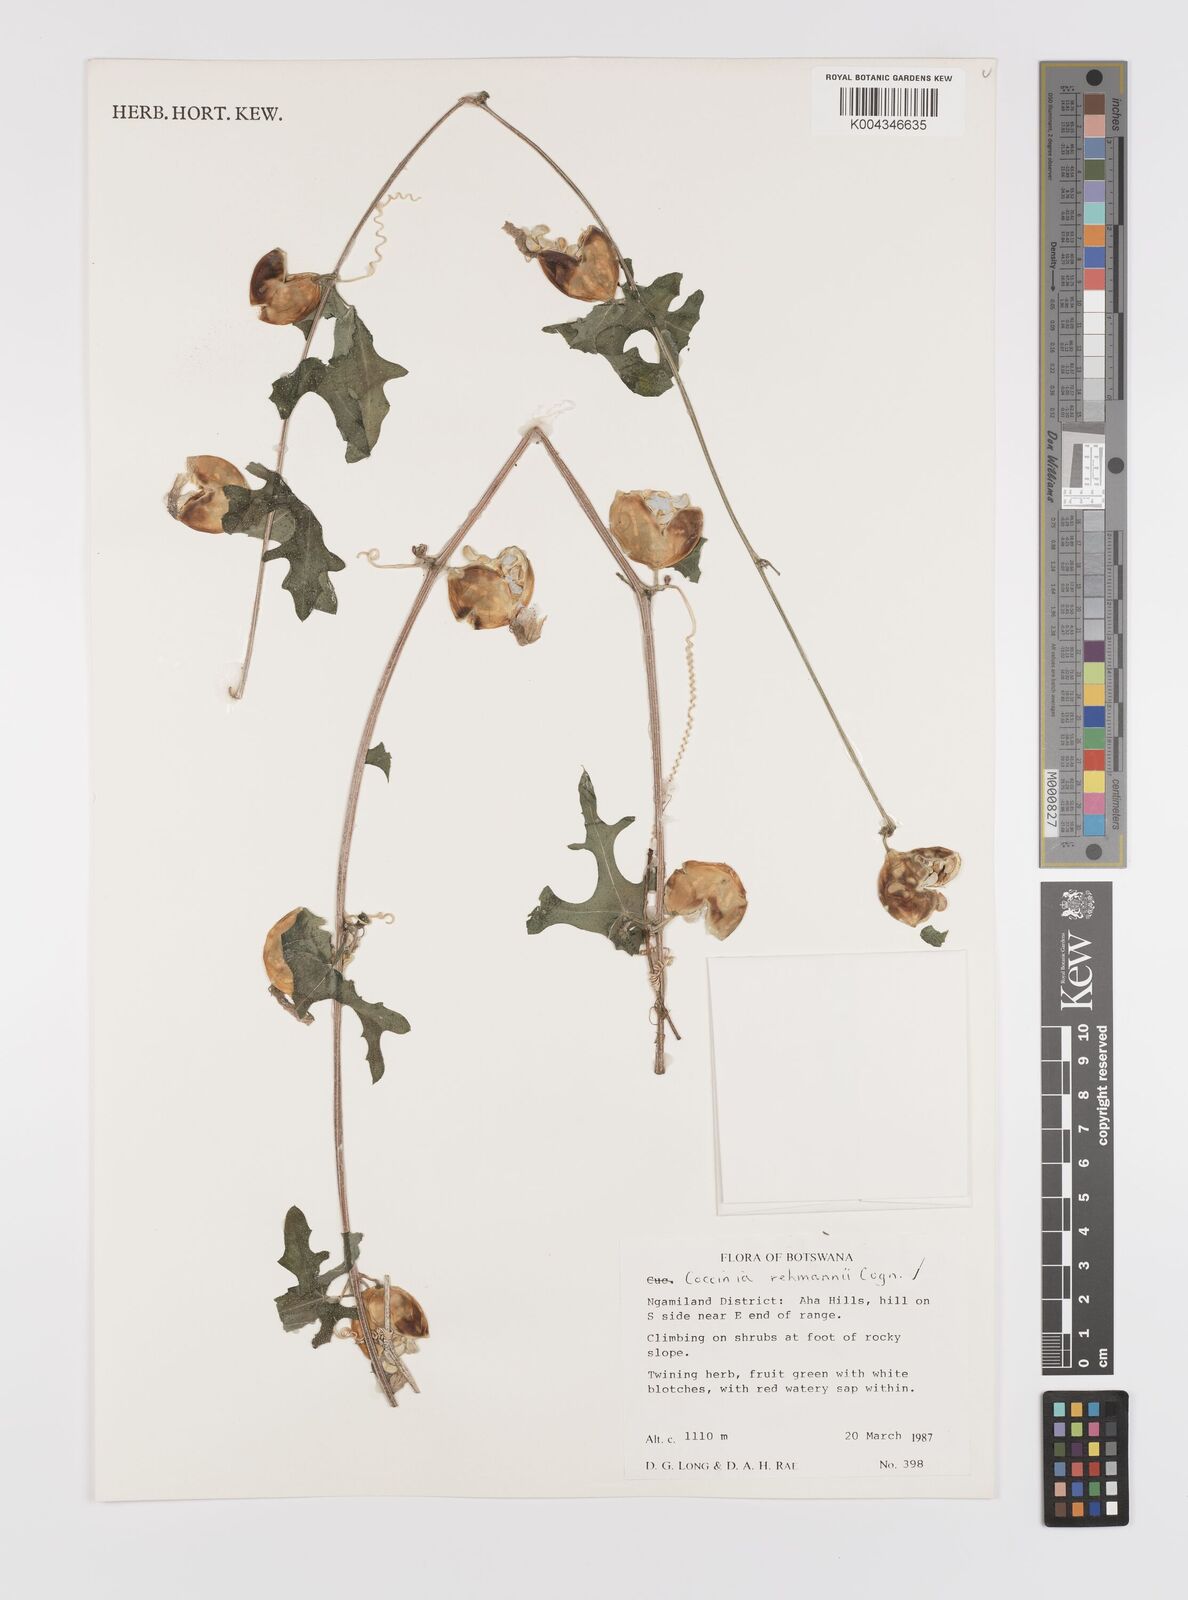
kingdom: Plantae
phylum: Tracheophyta
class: Magnoliopsida
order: Cucurbitales
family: Cucurbitaceae
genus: Coccinia
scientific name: Coccinia rehmannii
